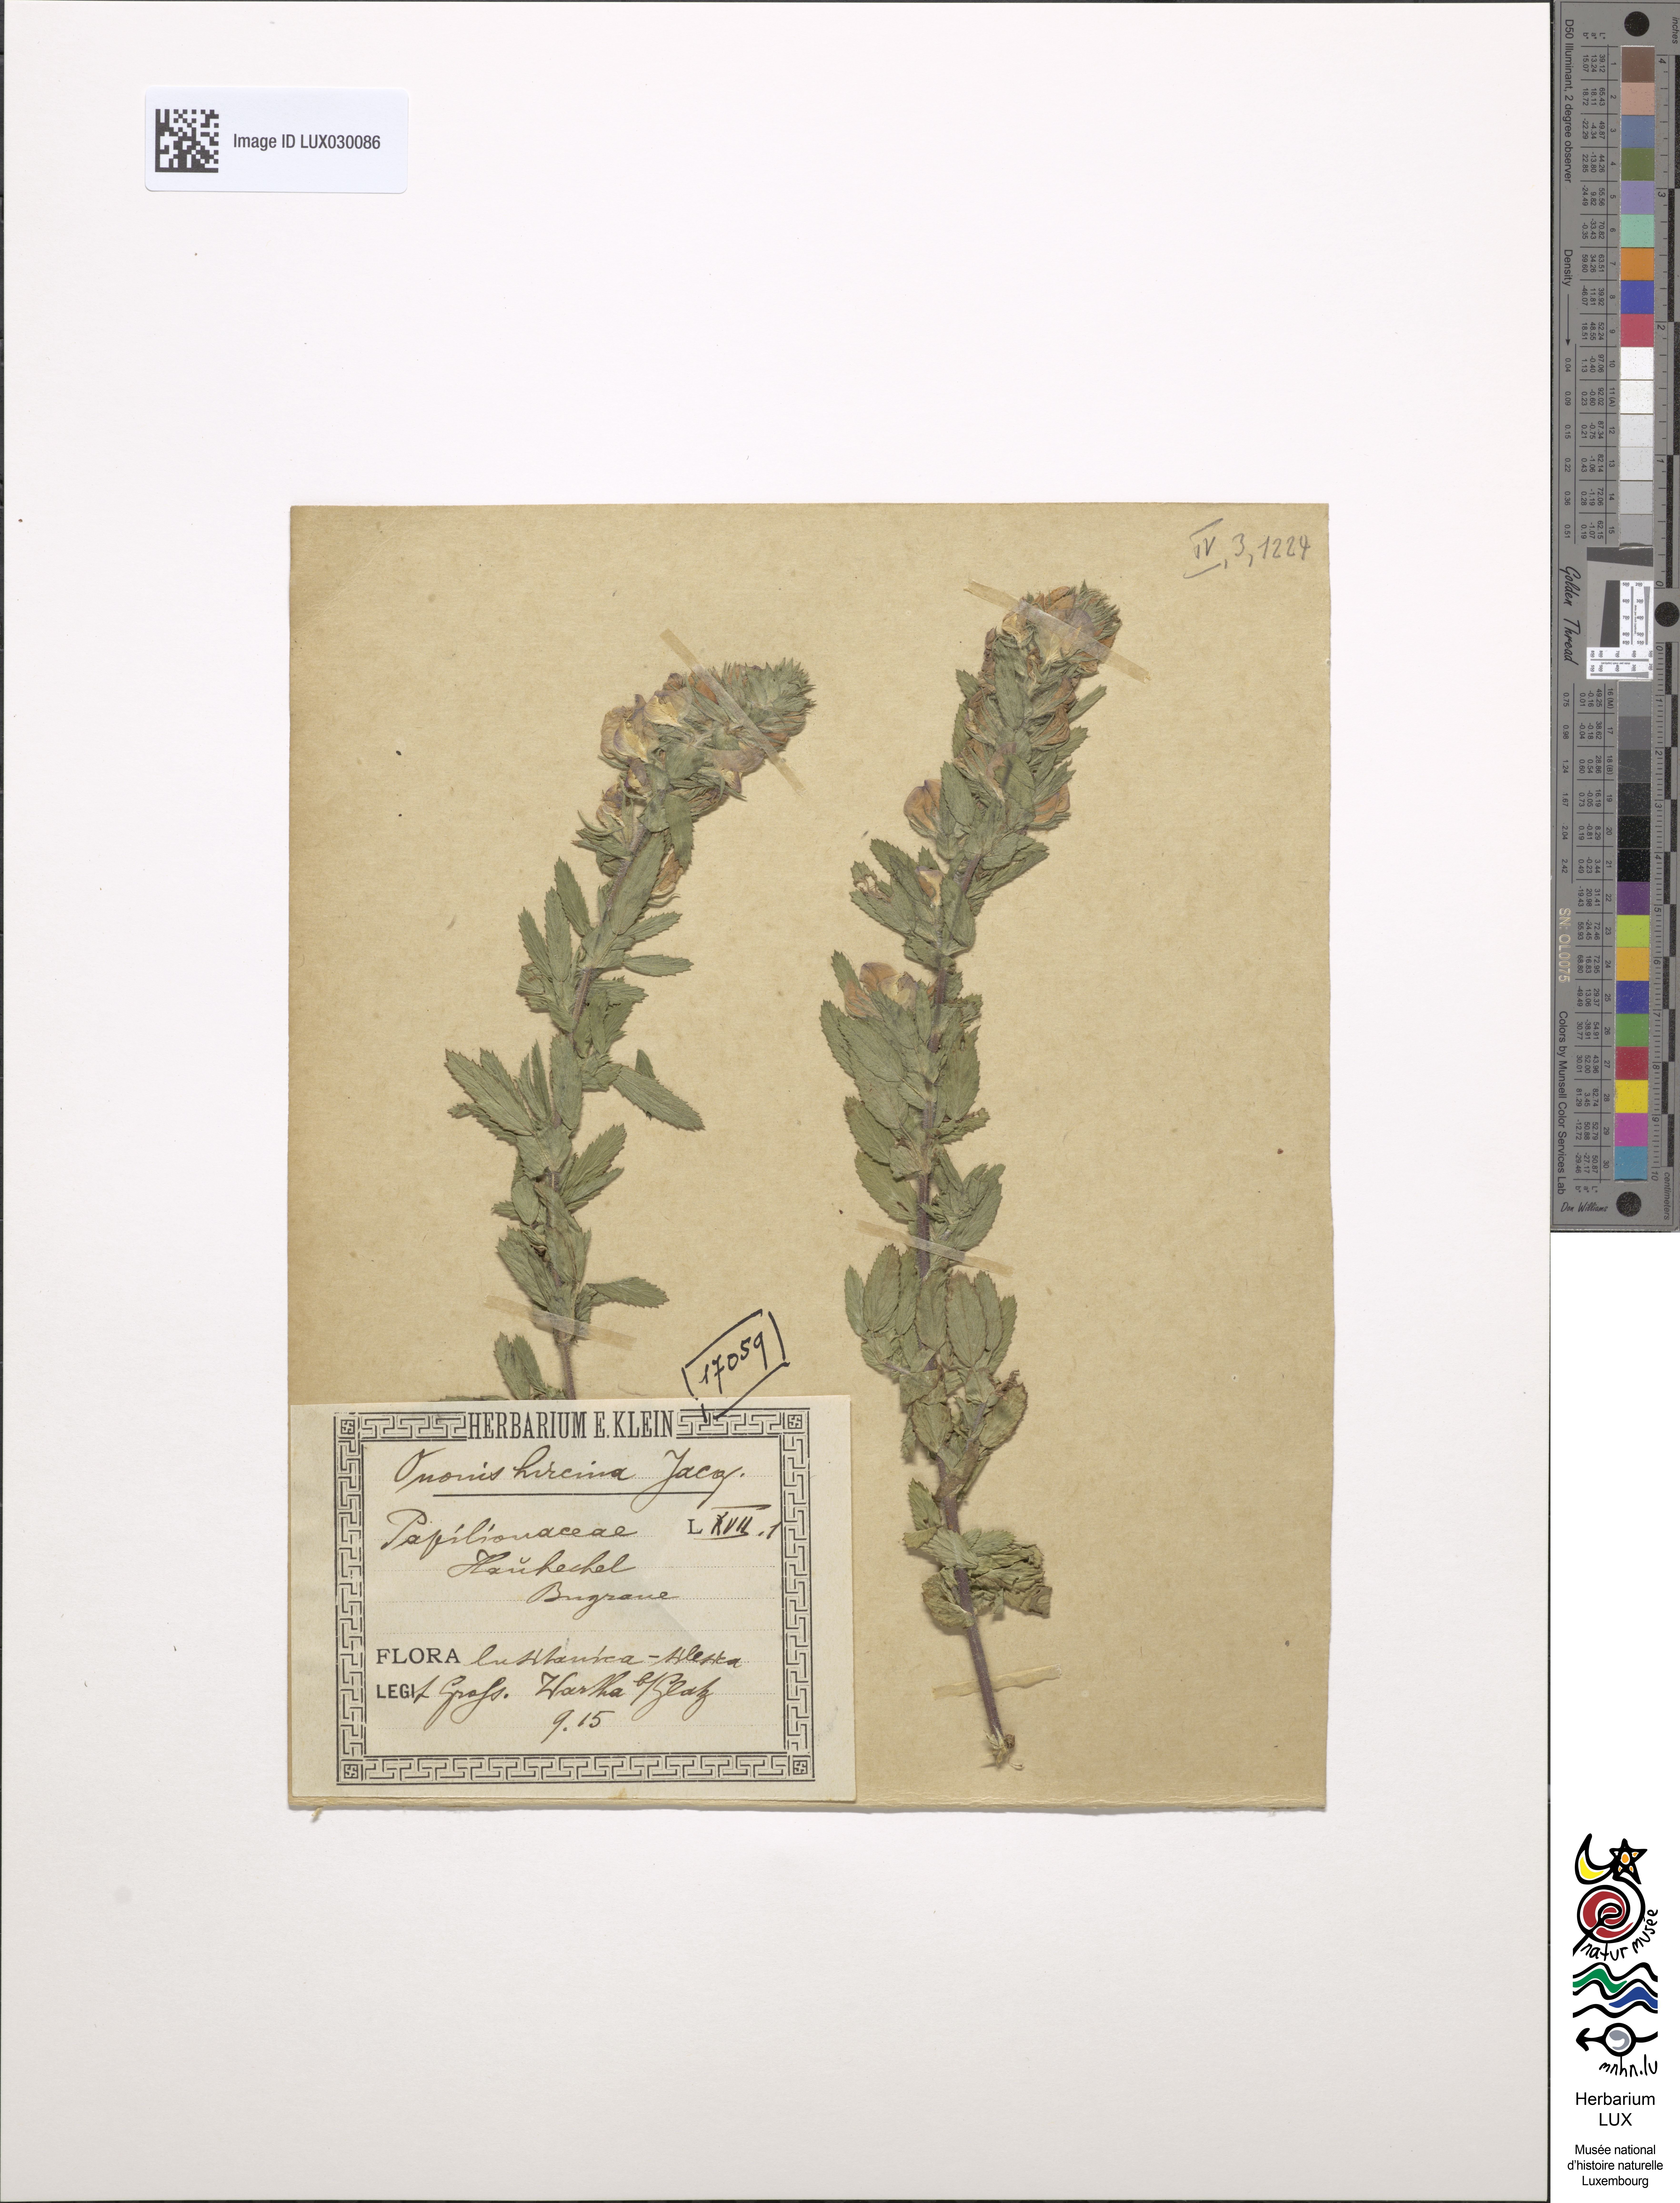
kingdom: Plantae
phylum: Tracheophyta
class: Magnoliopsida
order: Fabales
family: Fabaceae
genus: Ononis
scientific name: Ononis arvensis
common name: Field restharrow
